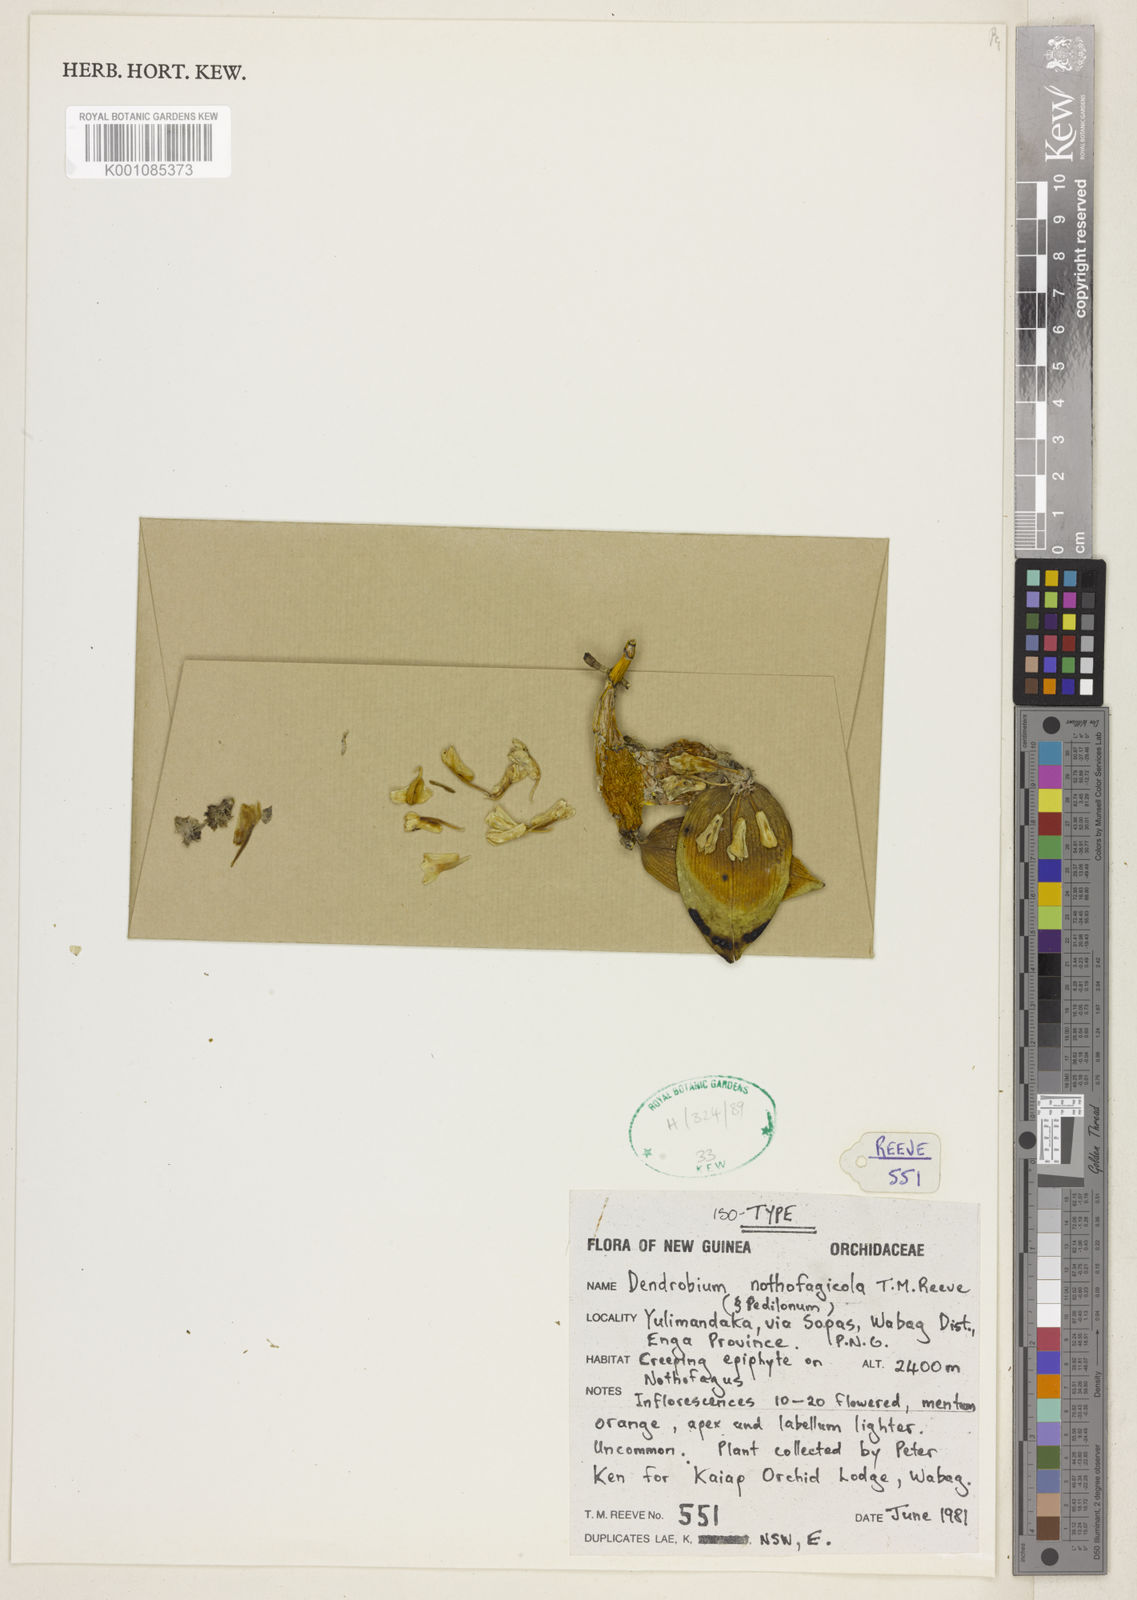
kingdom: Plantae
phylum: Tracheophyta
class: Liliopsida
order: Asparagales
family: Orchidaceae
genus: Dendrobium
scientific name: Dendrobium
